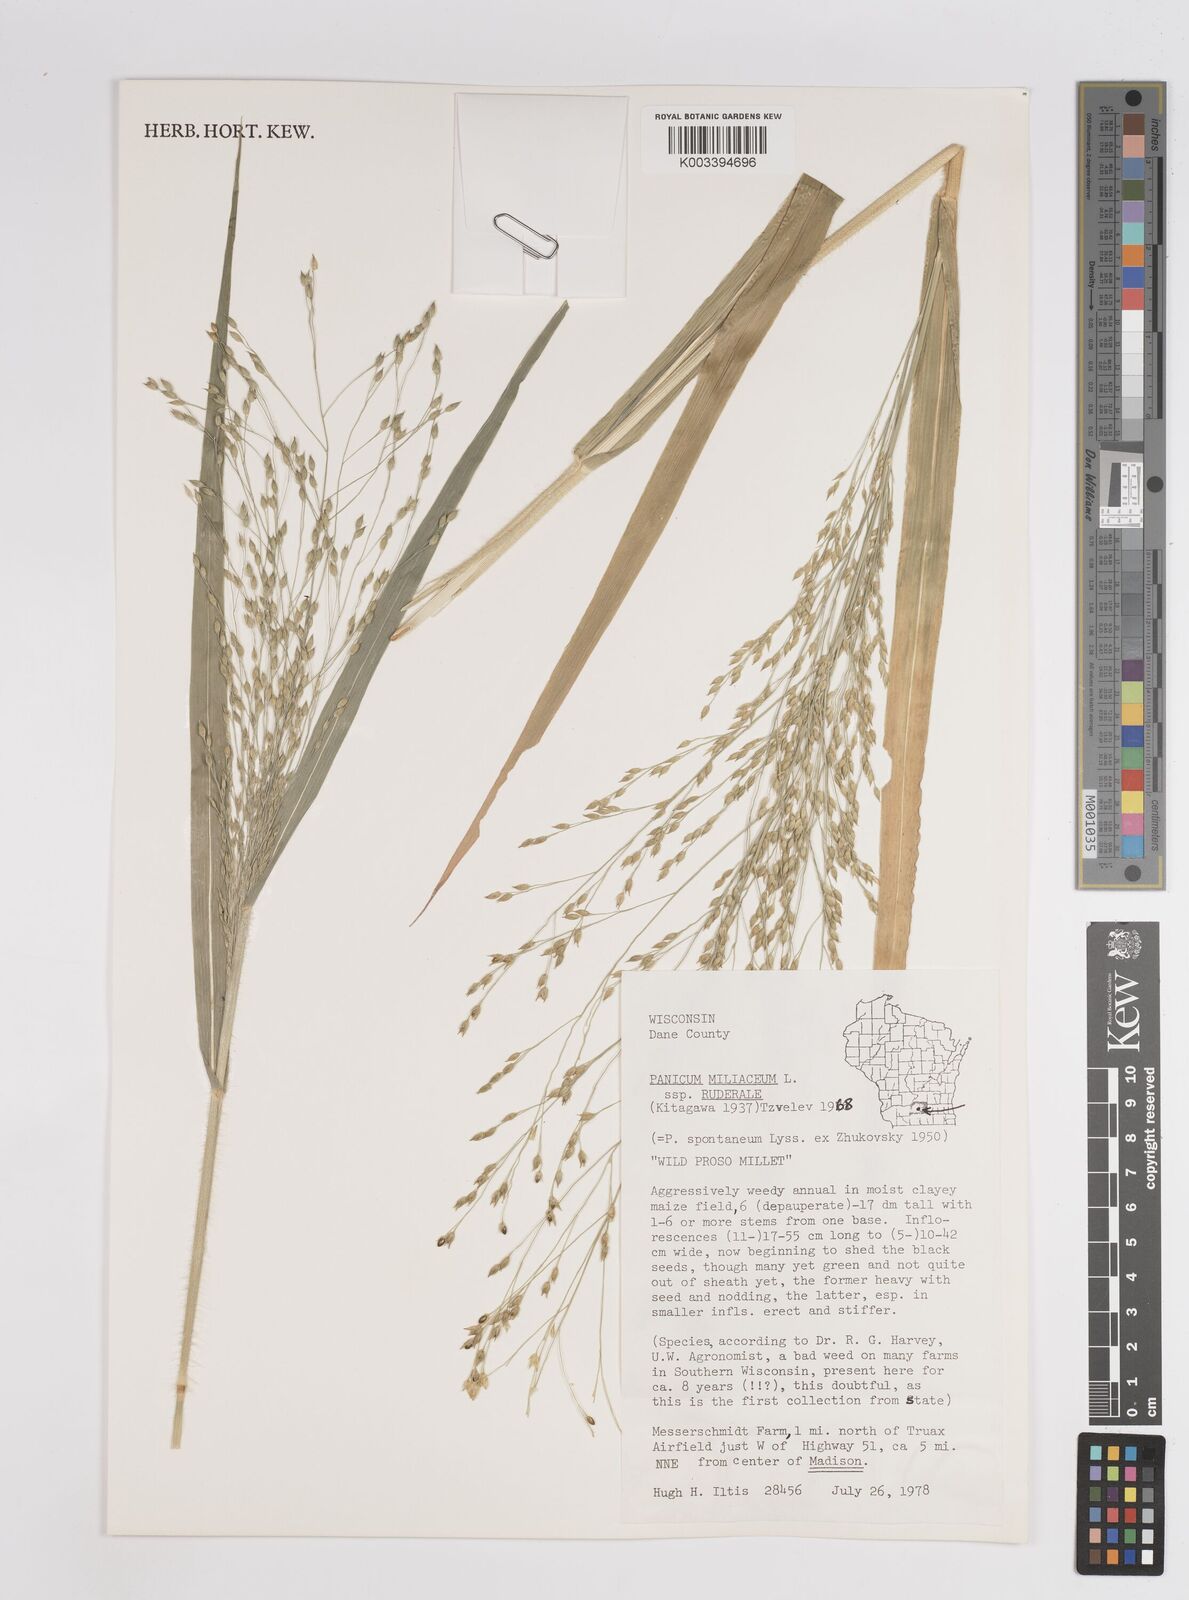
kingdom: Plantae
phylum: Tracheophyta
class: Liliopsida
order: Poales
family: Poaceae
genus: Panicum
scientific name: Panicum miliaceum
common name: Common millet
